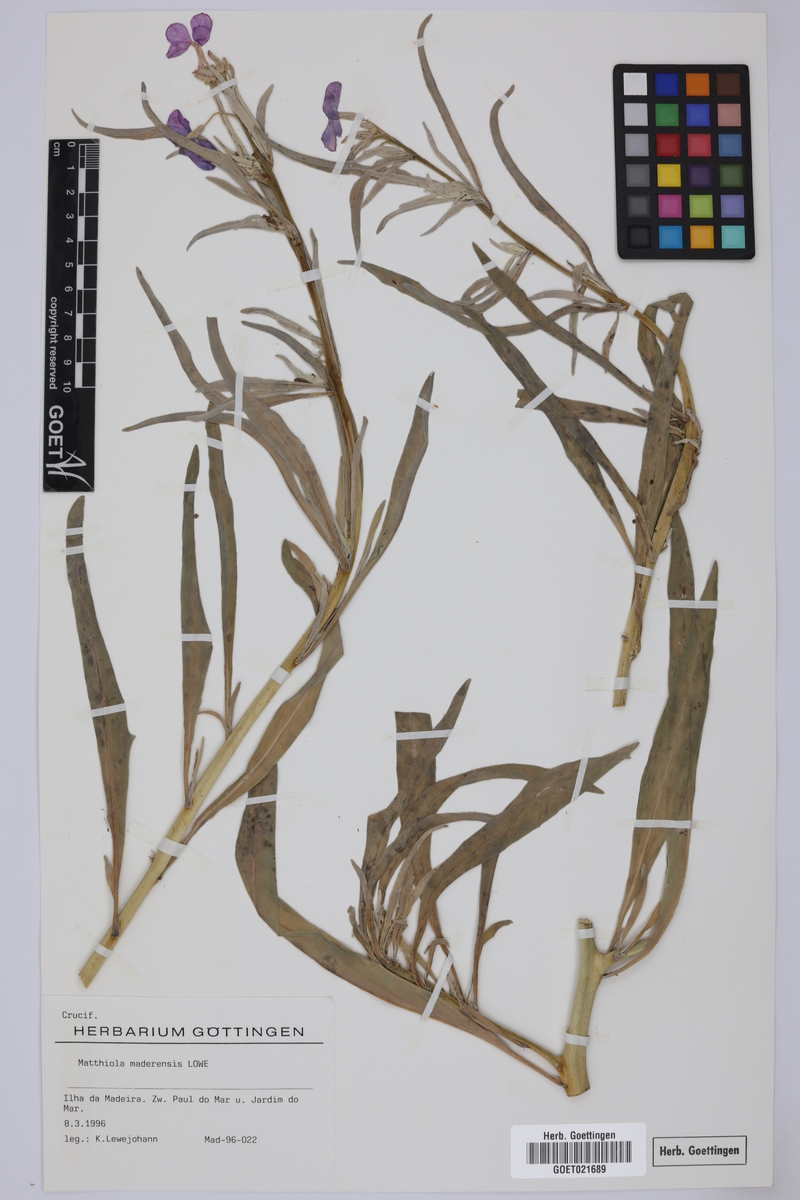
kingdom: Plantae
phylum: Tracheophyta
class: Magnoliopsida
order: Brassicales
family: Brassicaceae
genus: Matthiola
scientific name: Matthiola maderensis
